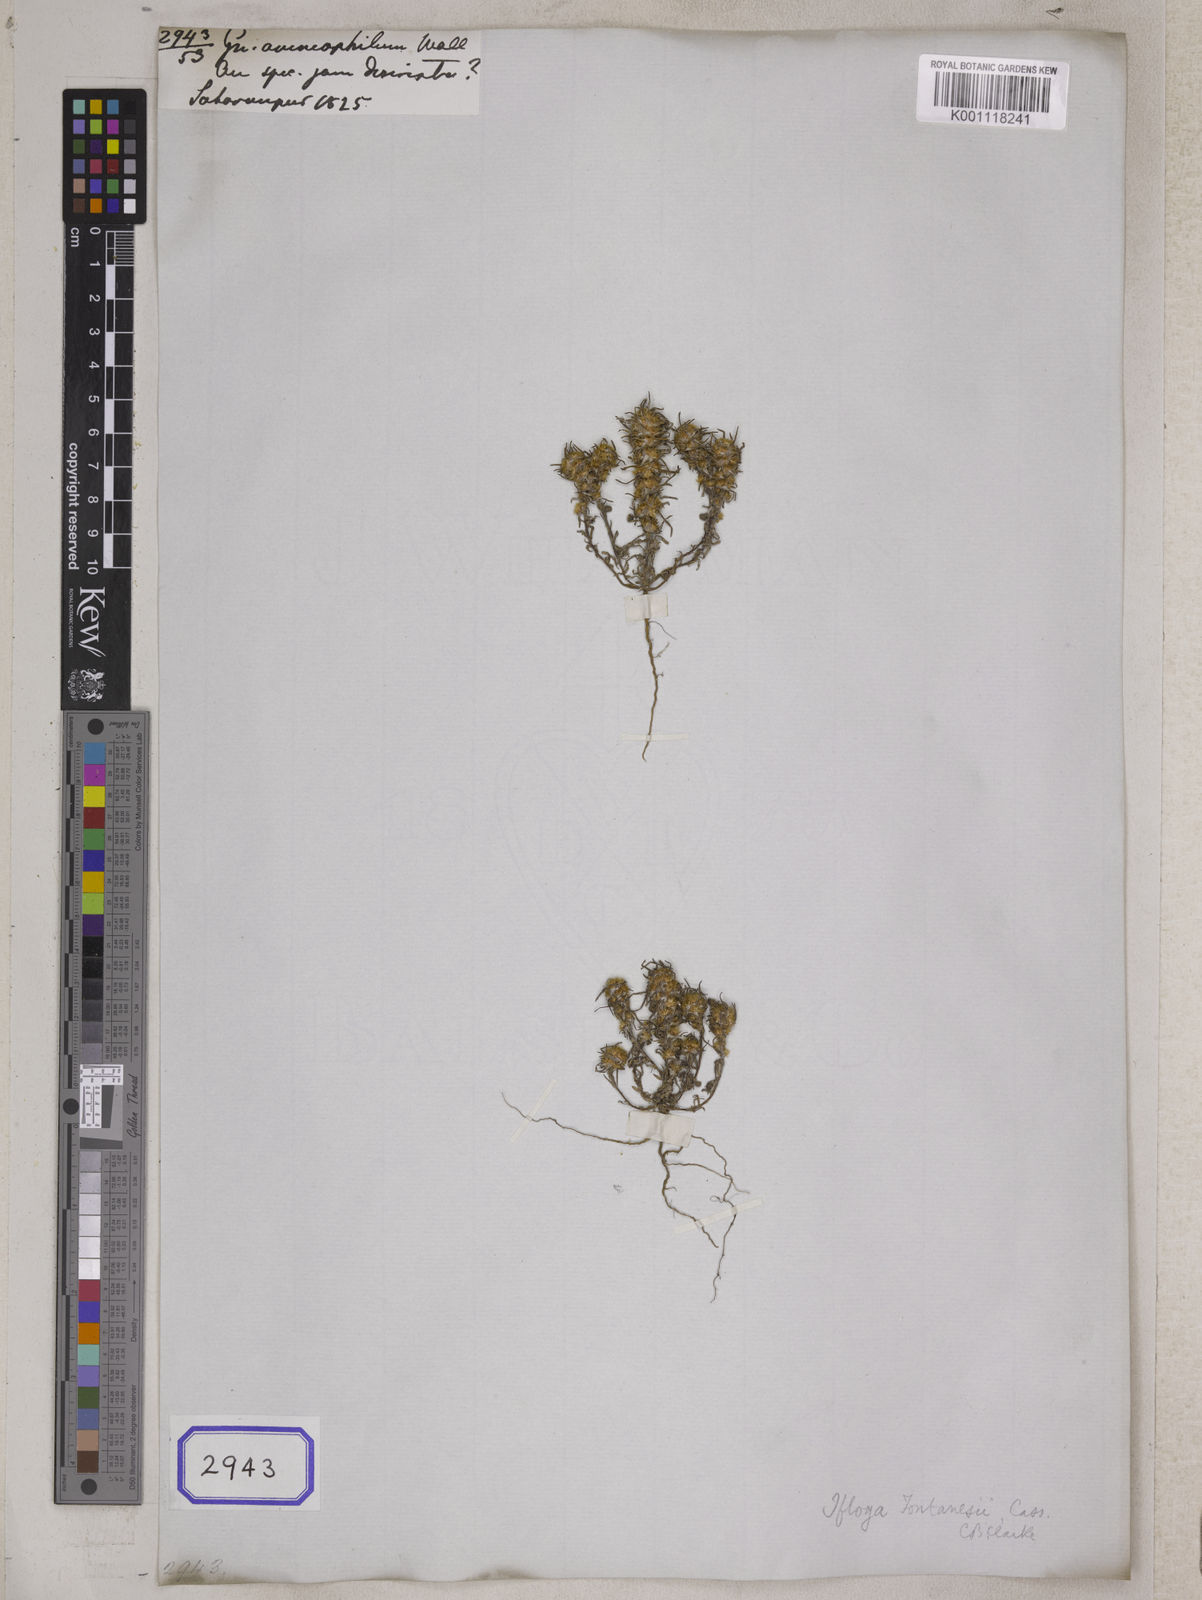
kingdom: Plantae
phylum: Tracheophyta
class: Magnoliopsida
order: Asterales
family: Asteraceae
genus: Ifloga
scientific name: Ifloga spicata
